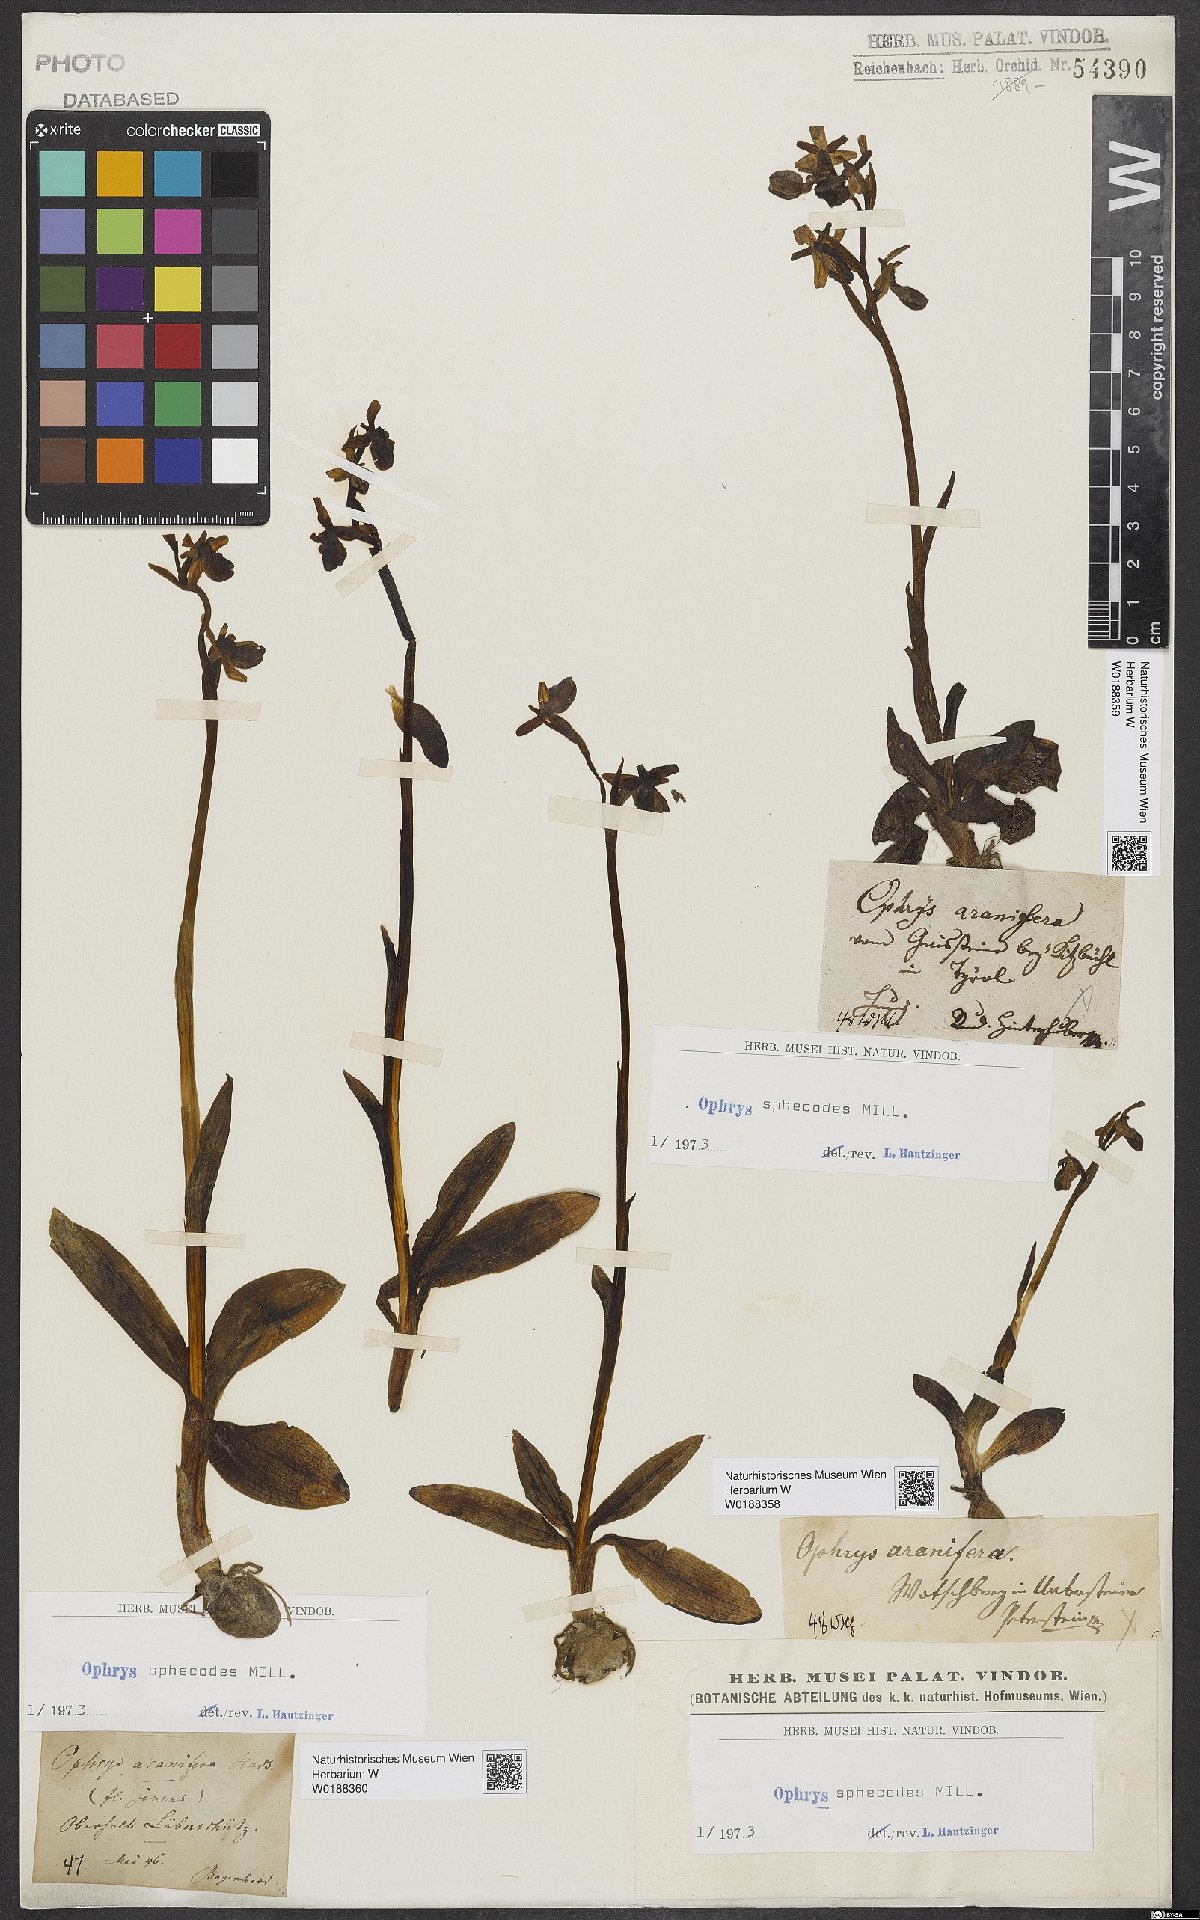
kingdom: Plantae
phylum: Tracheophyta
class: Liliopsida
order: Asparagales
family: Orchidaceae
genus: Ophrys
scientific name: Ophrys sphegodes
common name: Early spider-orchid
